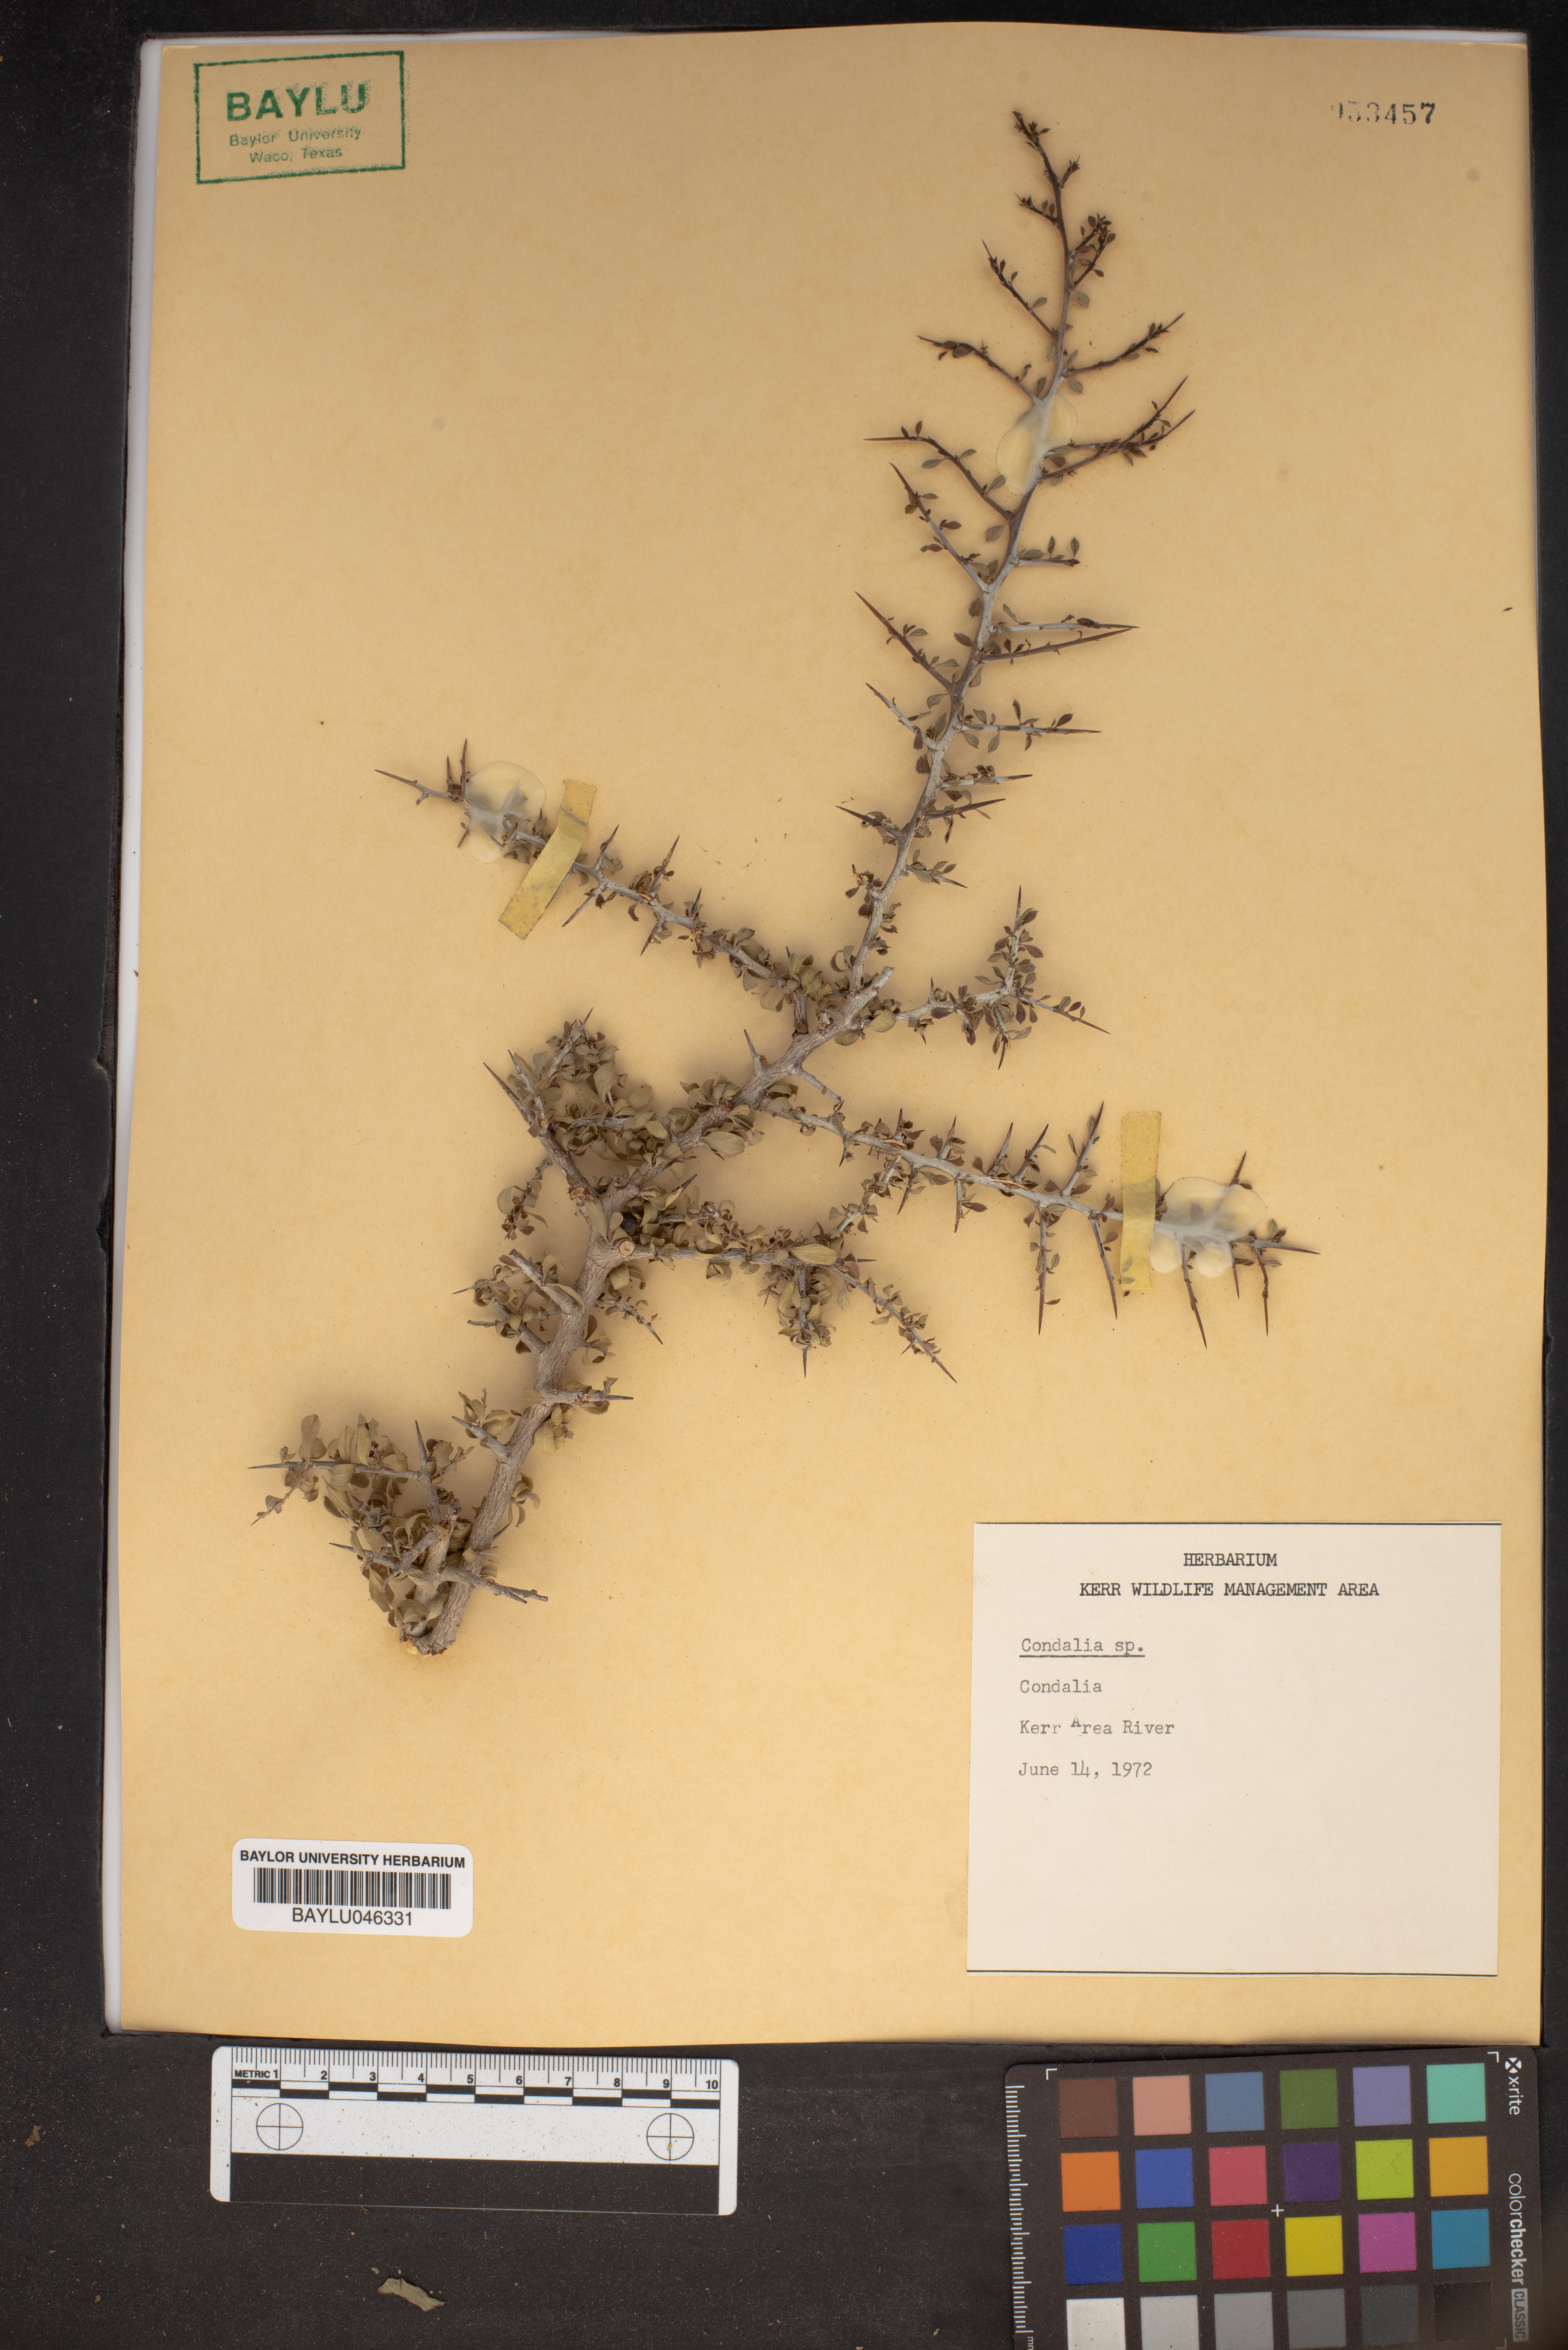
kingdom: Plantae
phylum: Tracheophyta
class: Magnoliopsida
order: Rosales
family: Rhamnaceae
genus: Condalia
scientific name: Condalia
